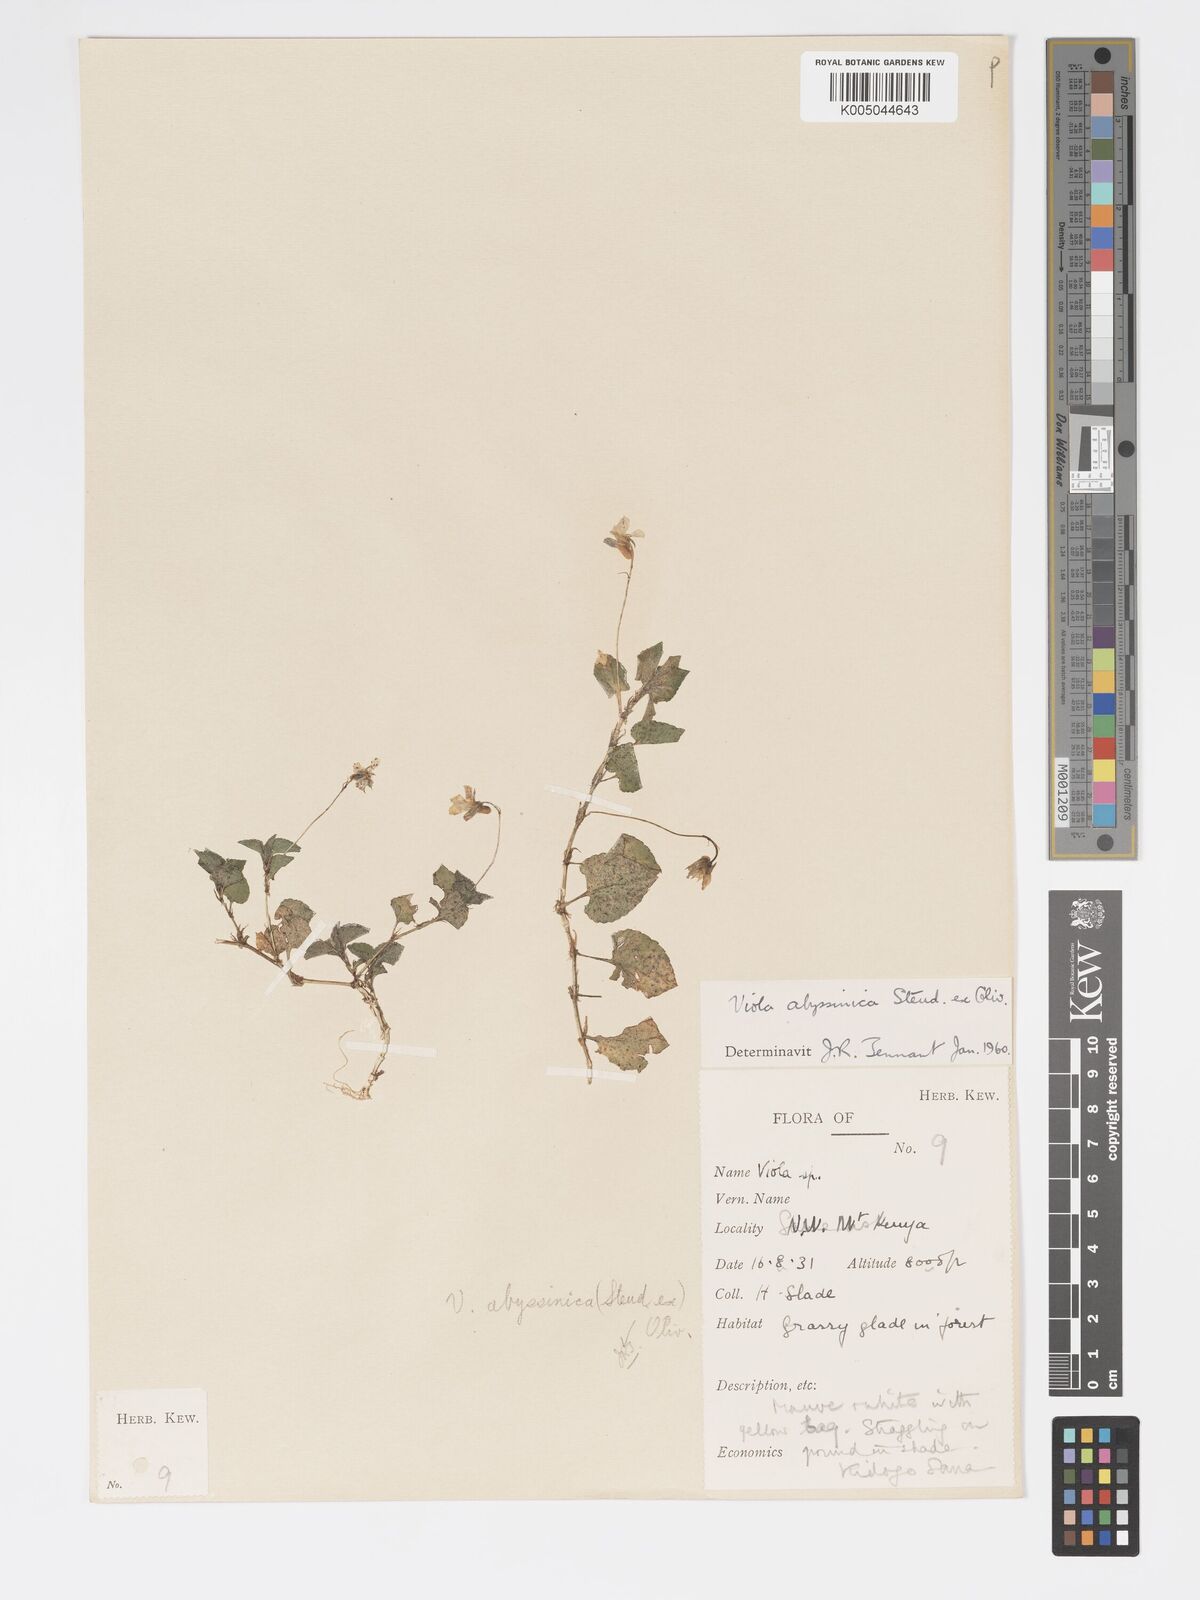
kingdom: Plantae
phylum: Tracheophyta
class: Magnoliopsida
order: Malpighiales
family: Violaceae
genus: Viola
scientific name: Viola abyssinica
